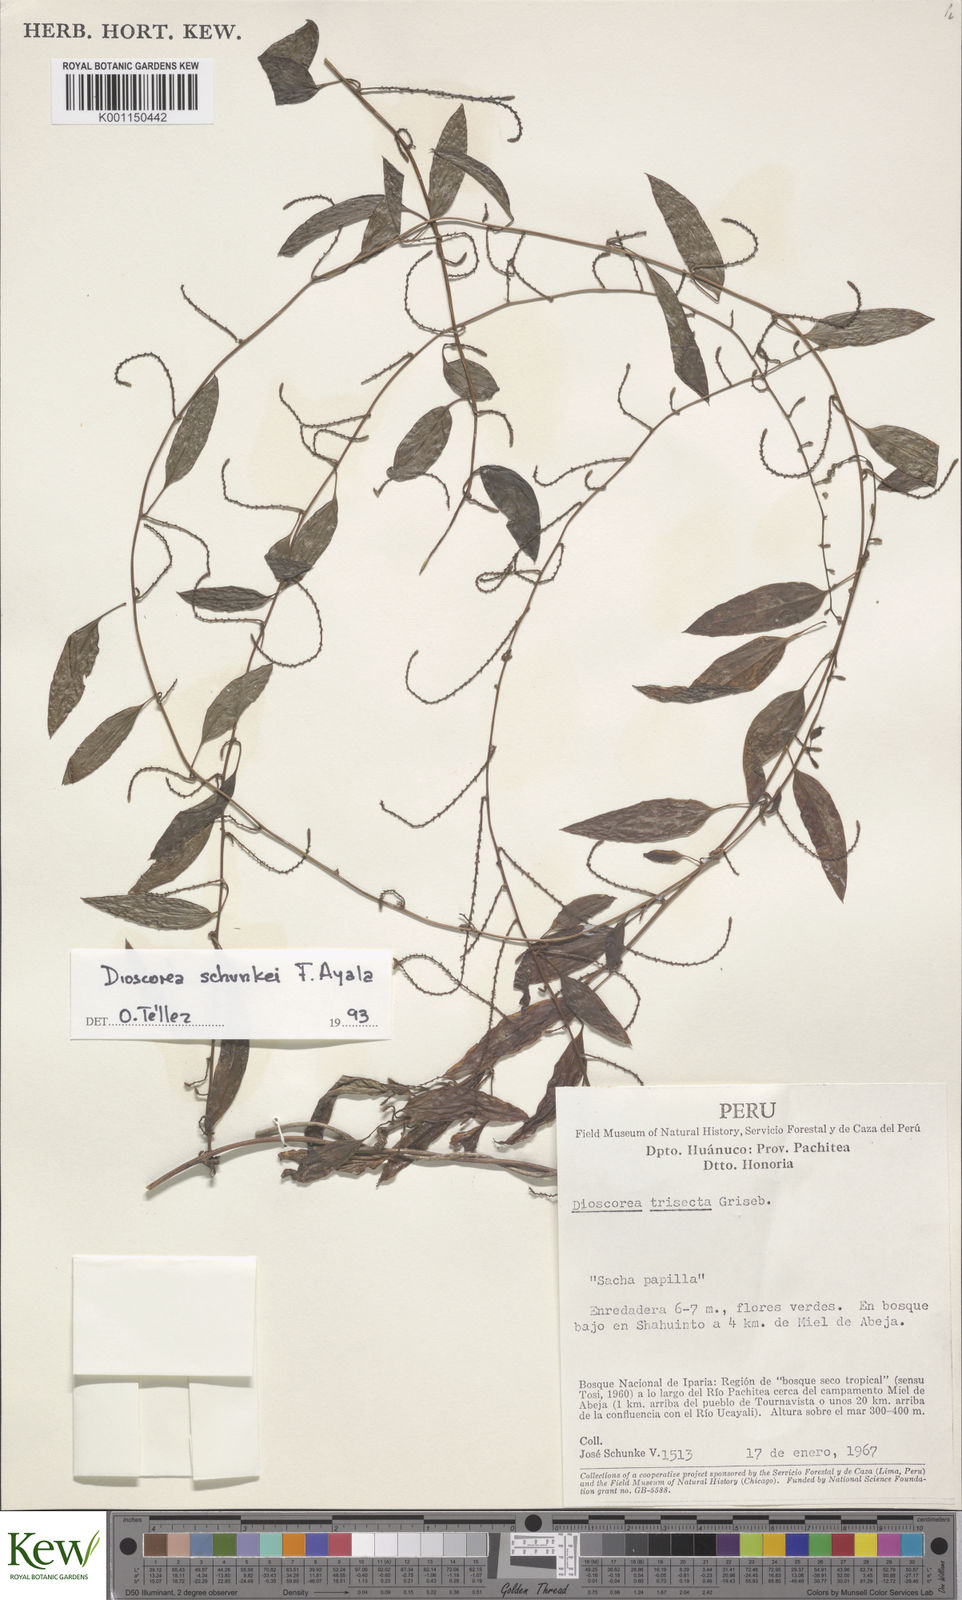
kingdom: Plantae
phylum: Tracheophyta
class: Liliopsida
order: Dioscoreales
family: Dioscoreaceae
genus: Dioscorea
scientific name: Dioscorea trisecta
